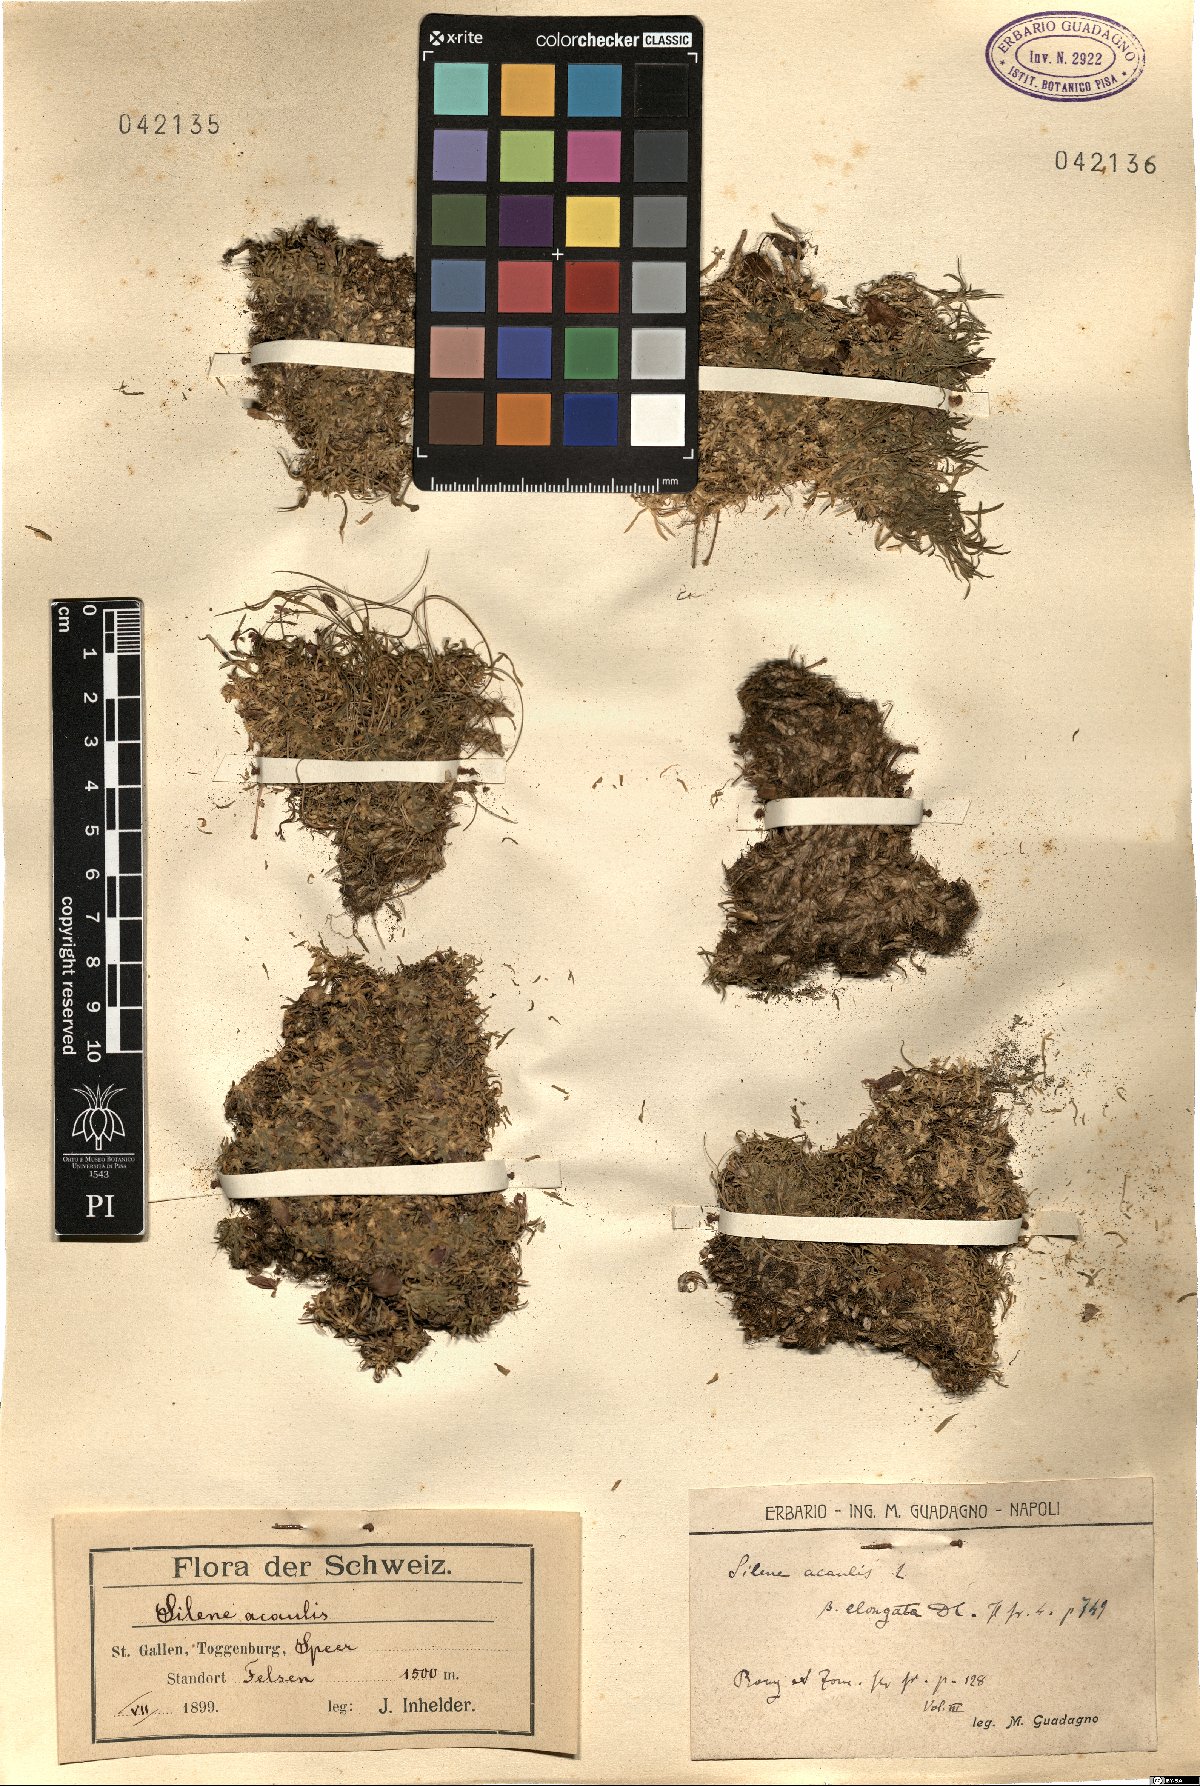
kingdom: Plantae
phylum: Tracheophyta
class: Magnoliopsida
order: Caryophyllales
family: Caryophyllaceae
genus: Silene
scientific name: Silene acaulis
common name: Moss campion
